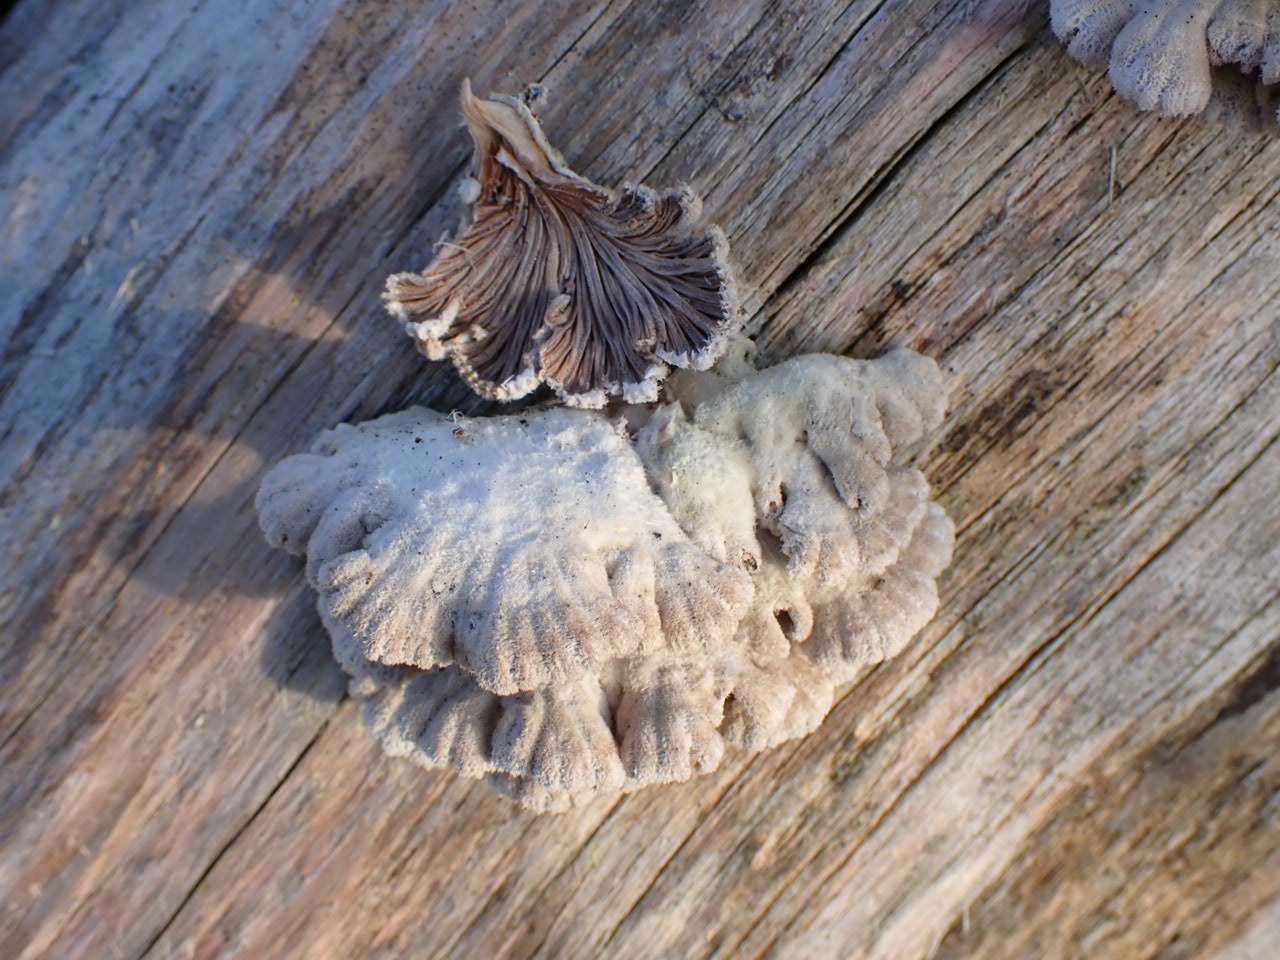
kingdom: Fungi
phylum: Basidiomycota
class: Agaricomycetes
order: Agaricales
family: Schizophyllaceae
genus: Schizophyllum
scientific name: Schizophyllum commune
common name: kløvblad
